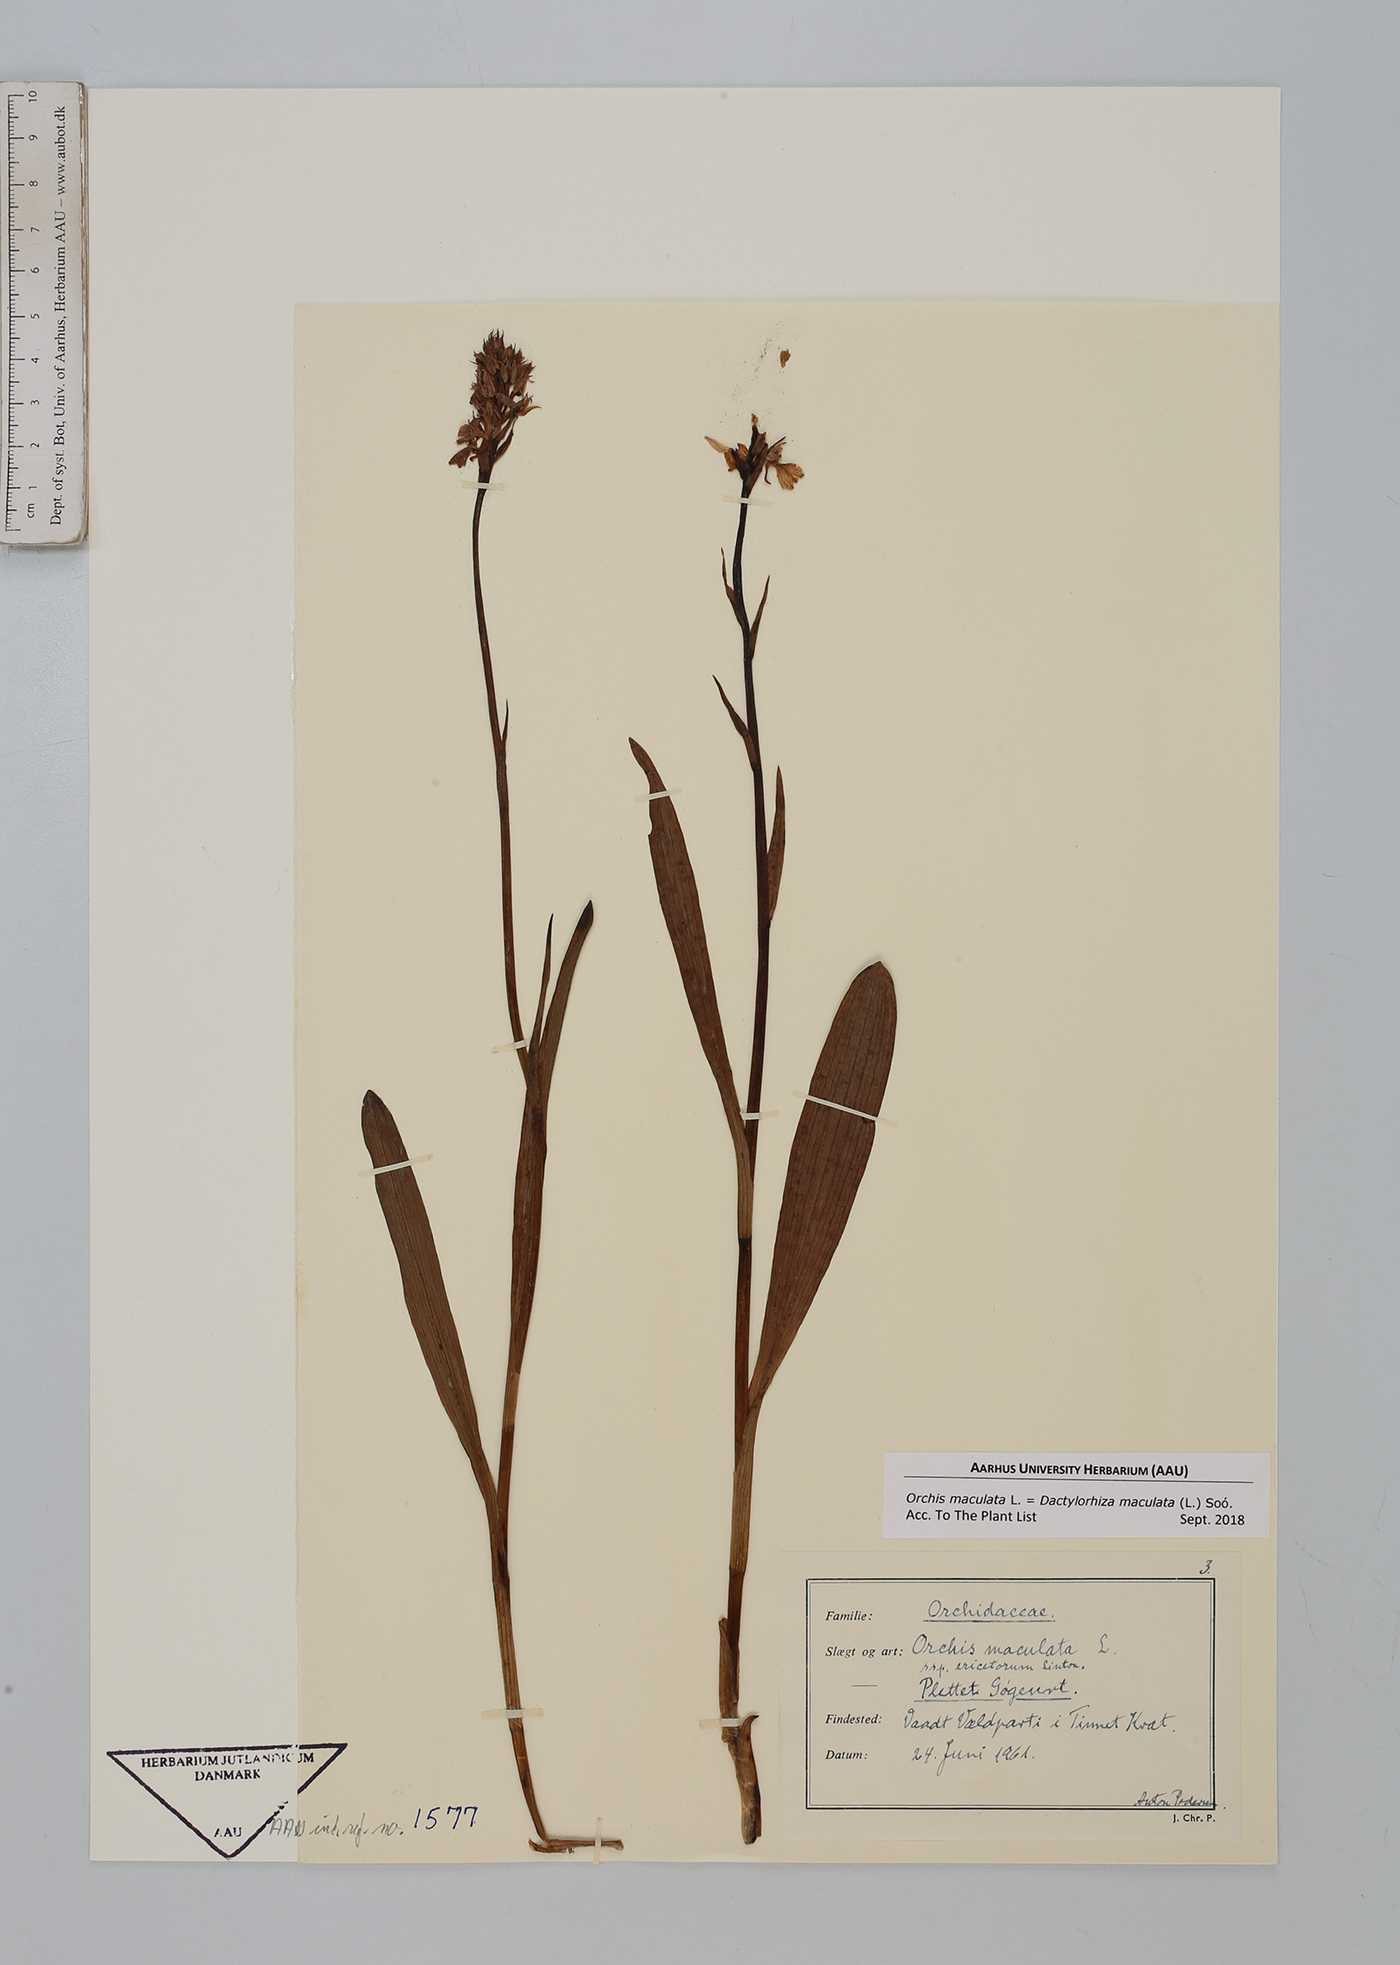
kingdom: Plantae
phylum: Tracheophyta
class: Liliopsida
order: Asparagales
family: Orchidaceae
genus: Dactylorhiza
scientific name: Dactylorhiza maculata
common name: Heath spotted-orchid
